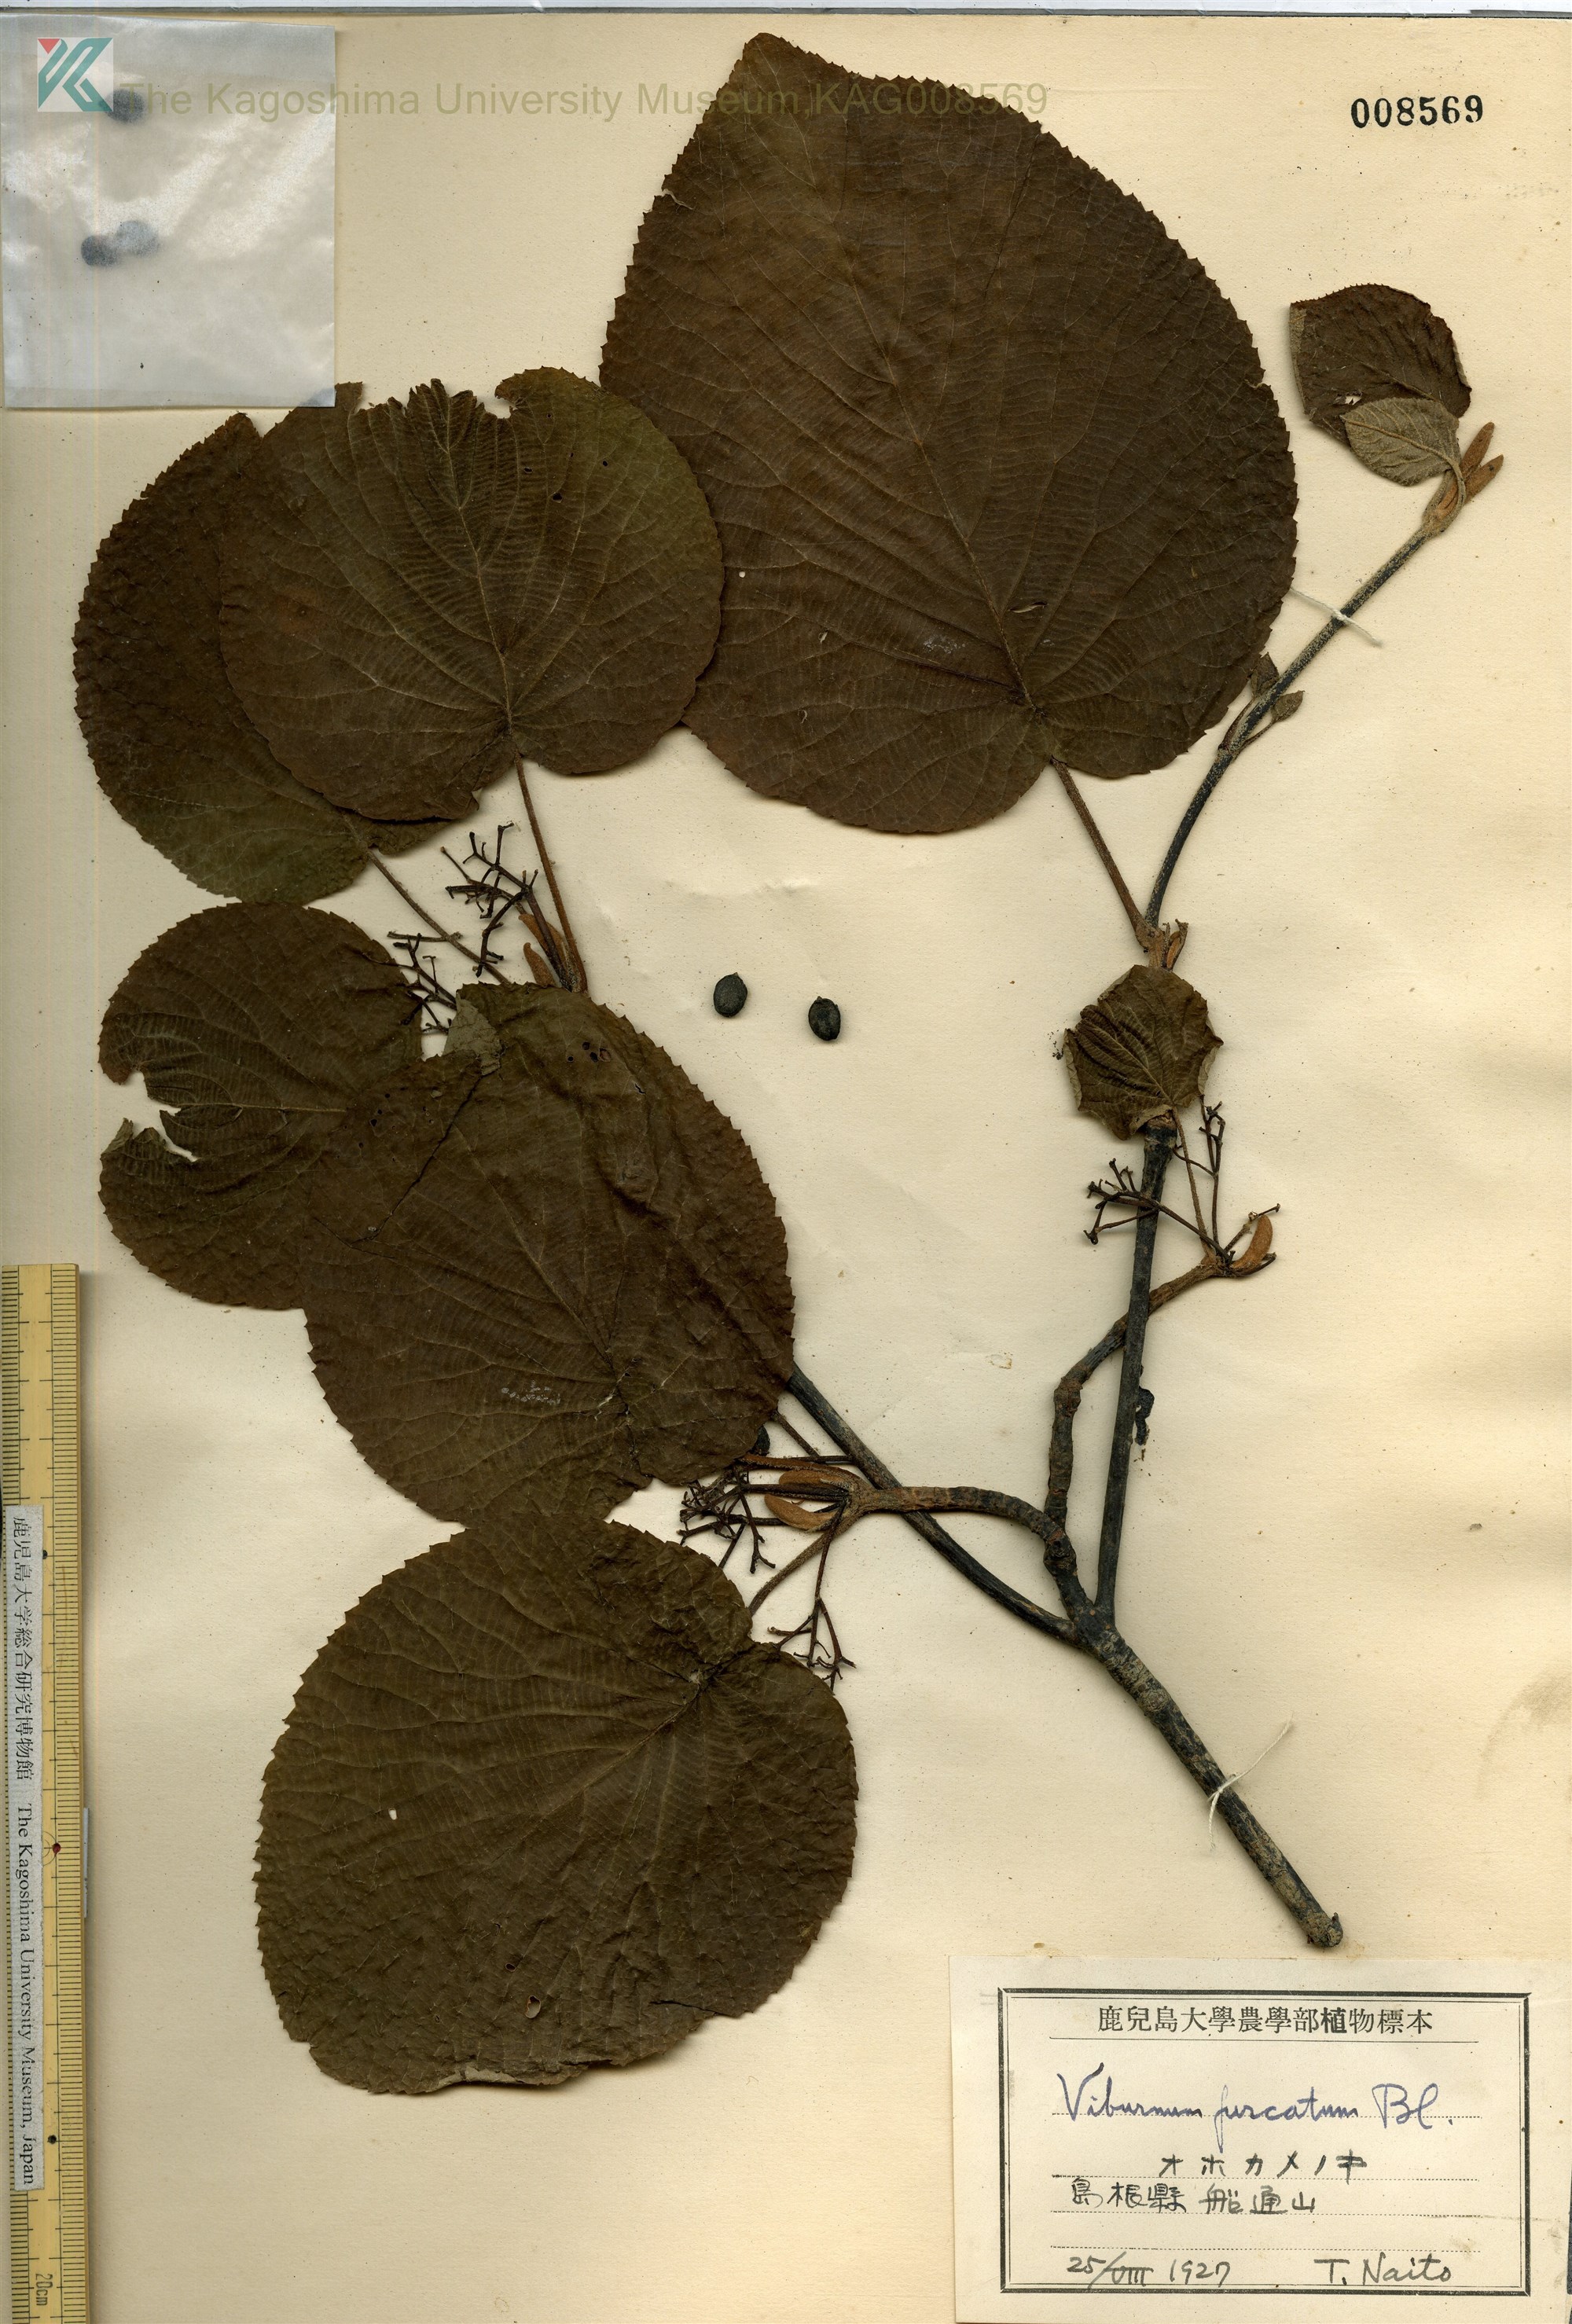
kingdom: Plantae
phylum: Tracheophyta
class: Magnoliopsida
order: Dipsacales
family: Viburnaceae
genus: Viburnum
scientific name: Viburnum furcatum
